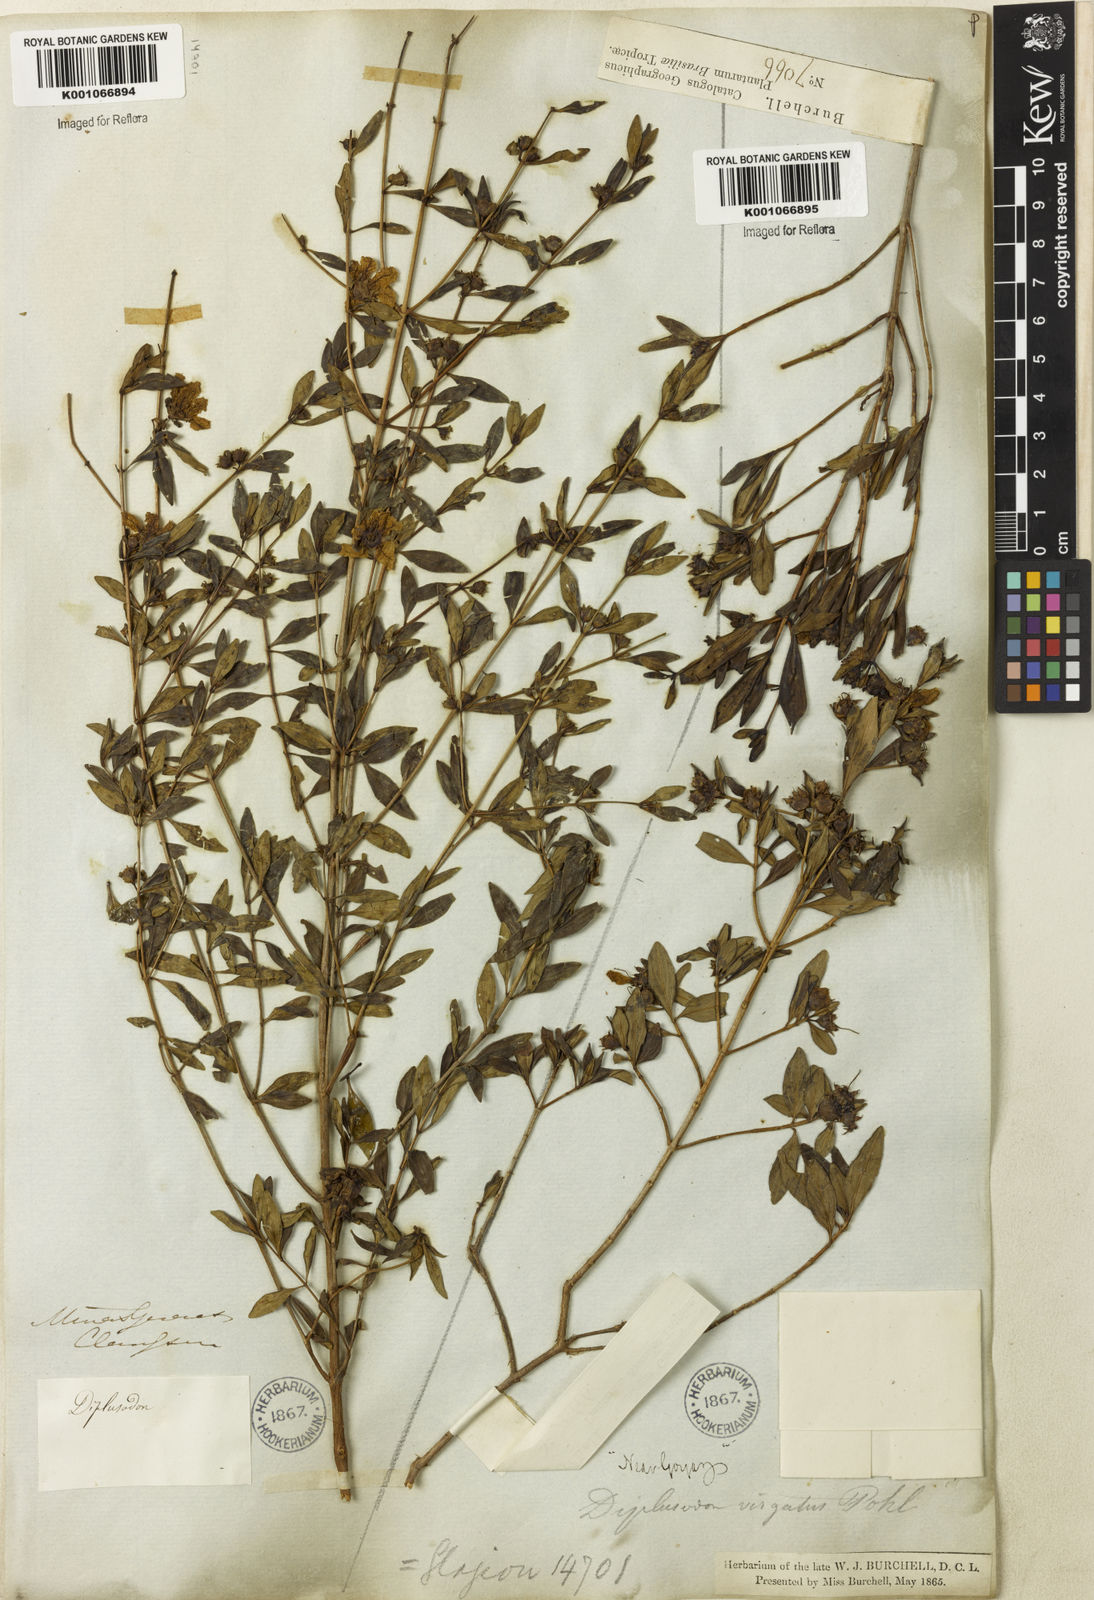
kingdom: Plantae
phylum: Tracheophyta
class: Magnoliopsida
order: Myrtales
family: Lythraceae
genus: Diplusodon
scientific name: Diplusodon virgatus
